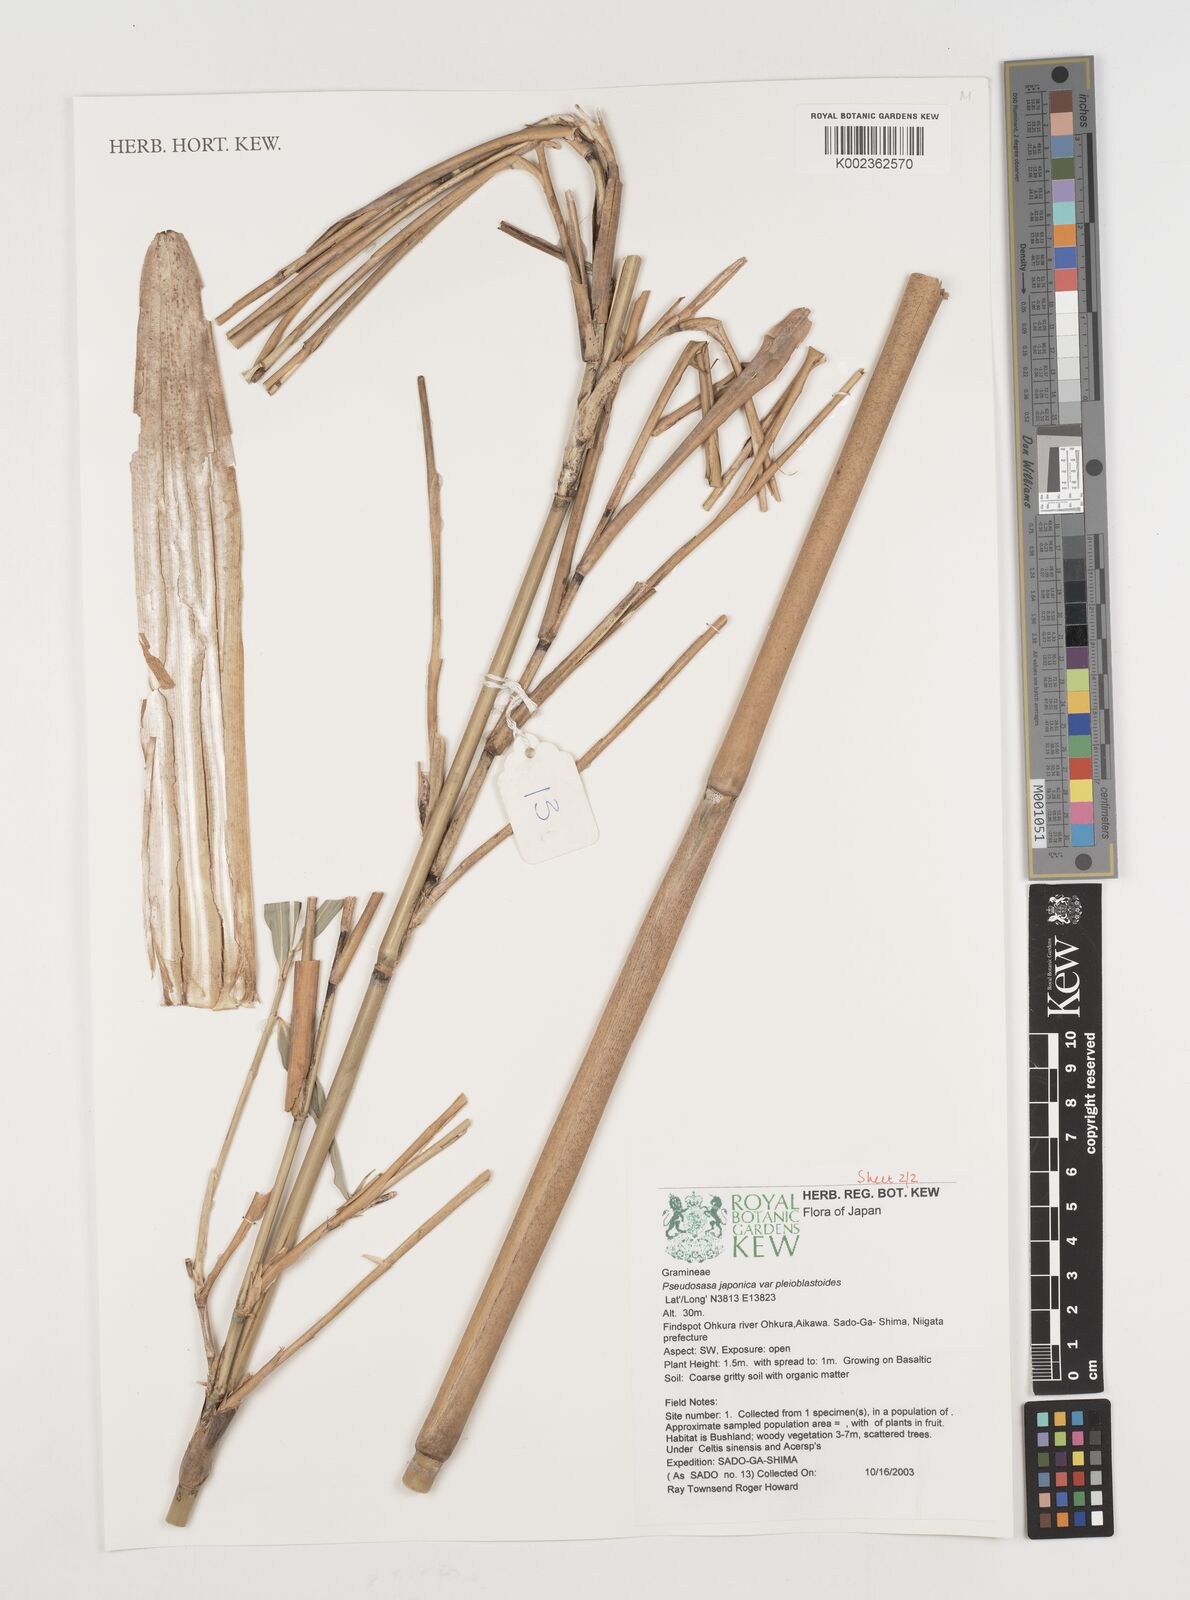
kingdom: Plantae
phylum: Tracheophyta
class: Liliopsida
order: Poales
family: Poaceae
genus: Pseudosasa
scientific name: Pseudosasa japonica
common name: Arrow bamboo
